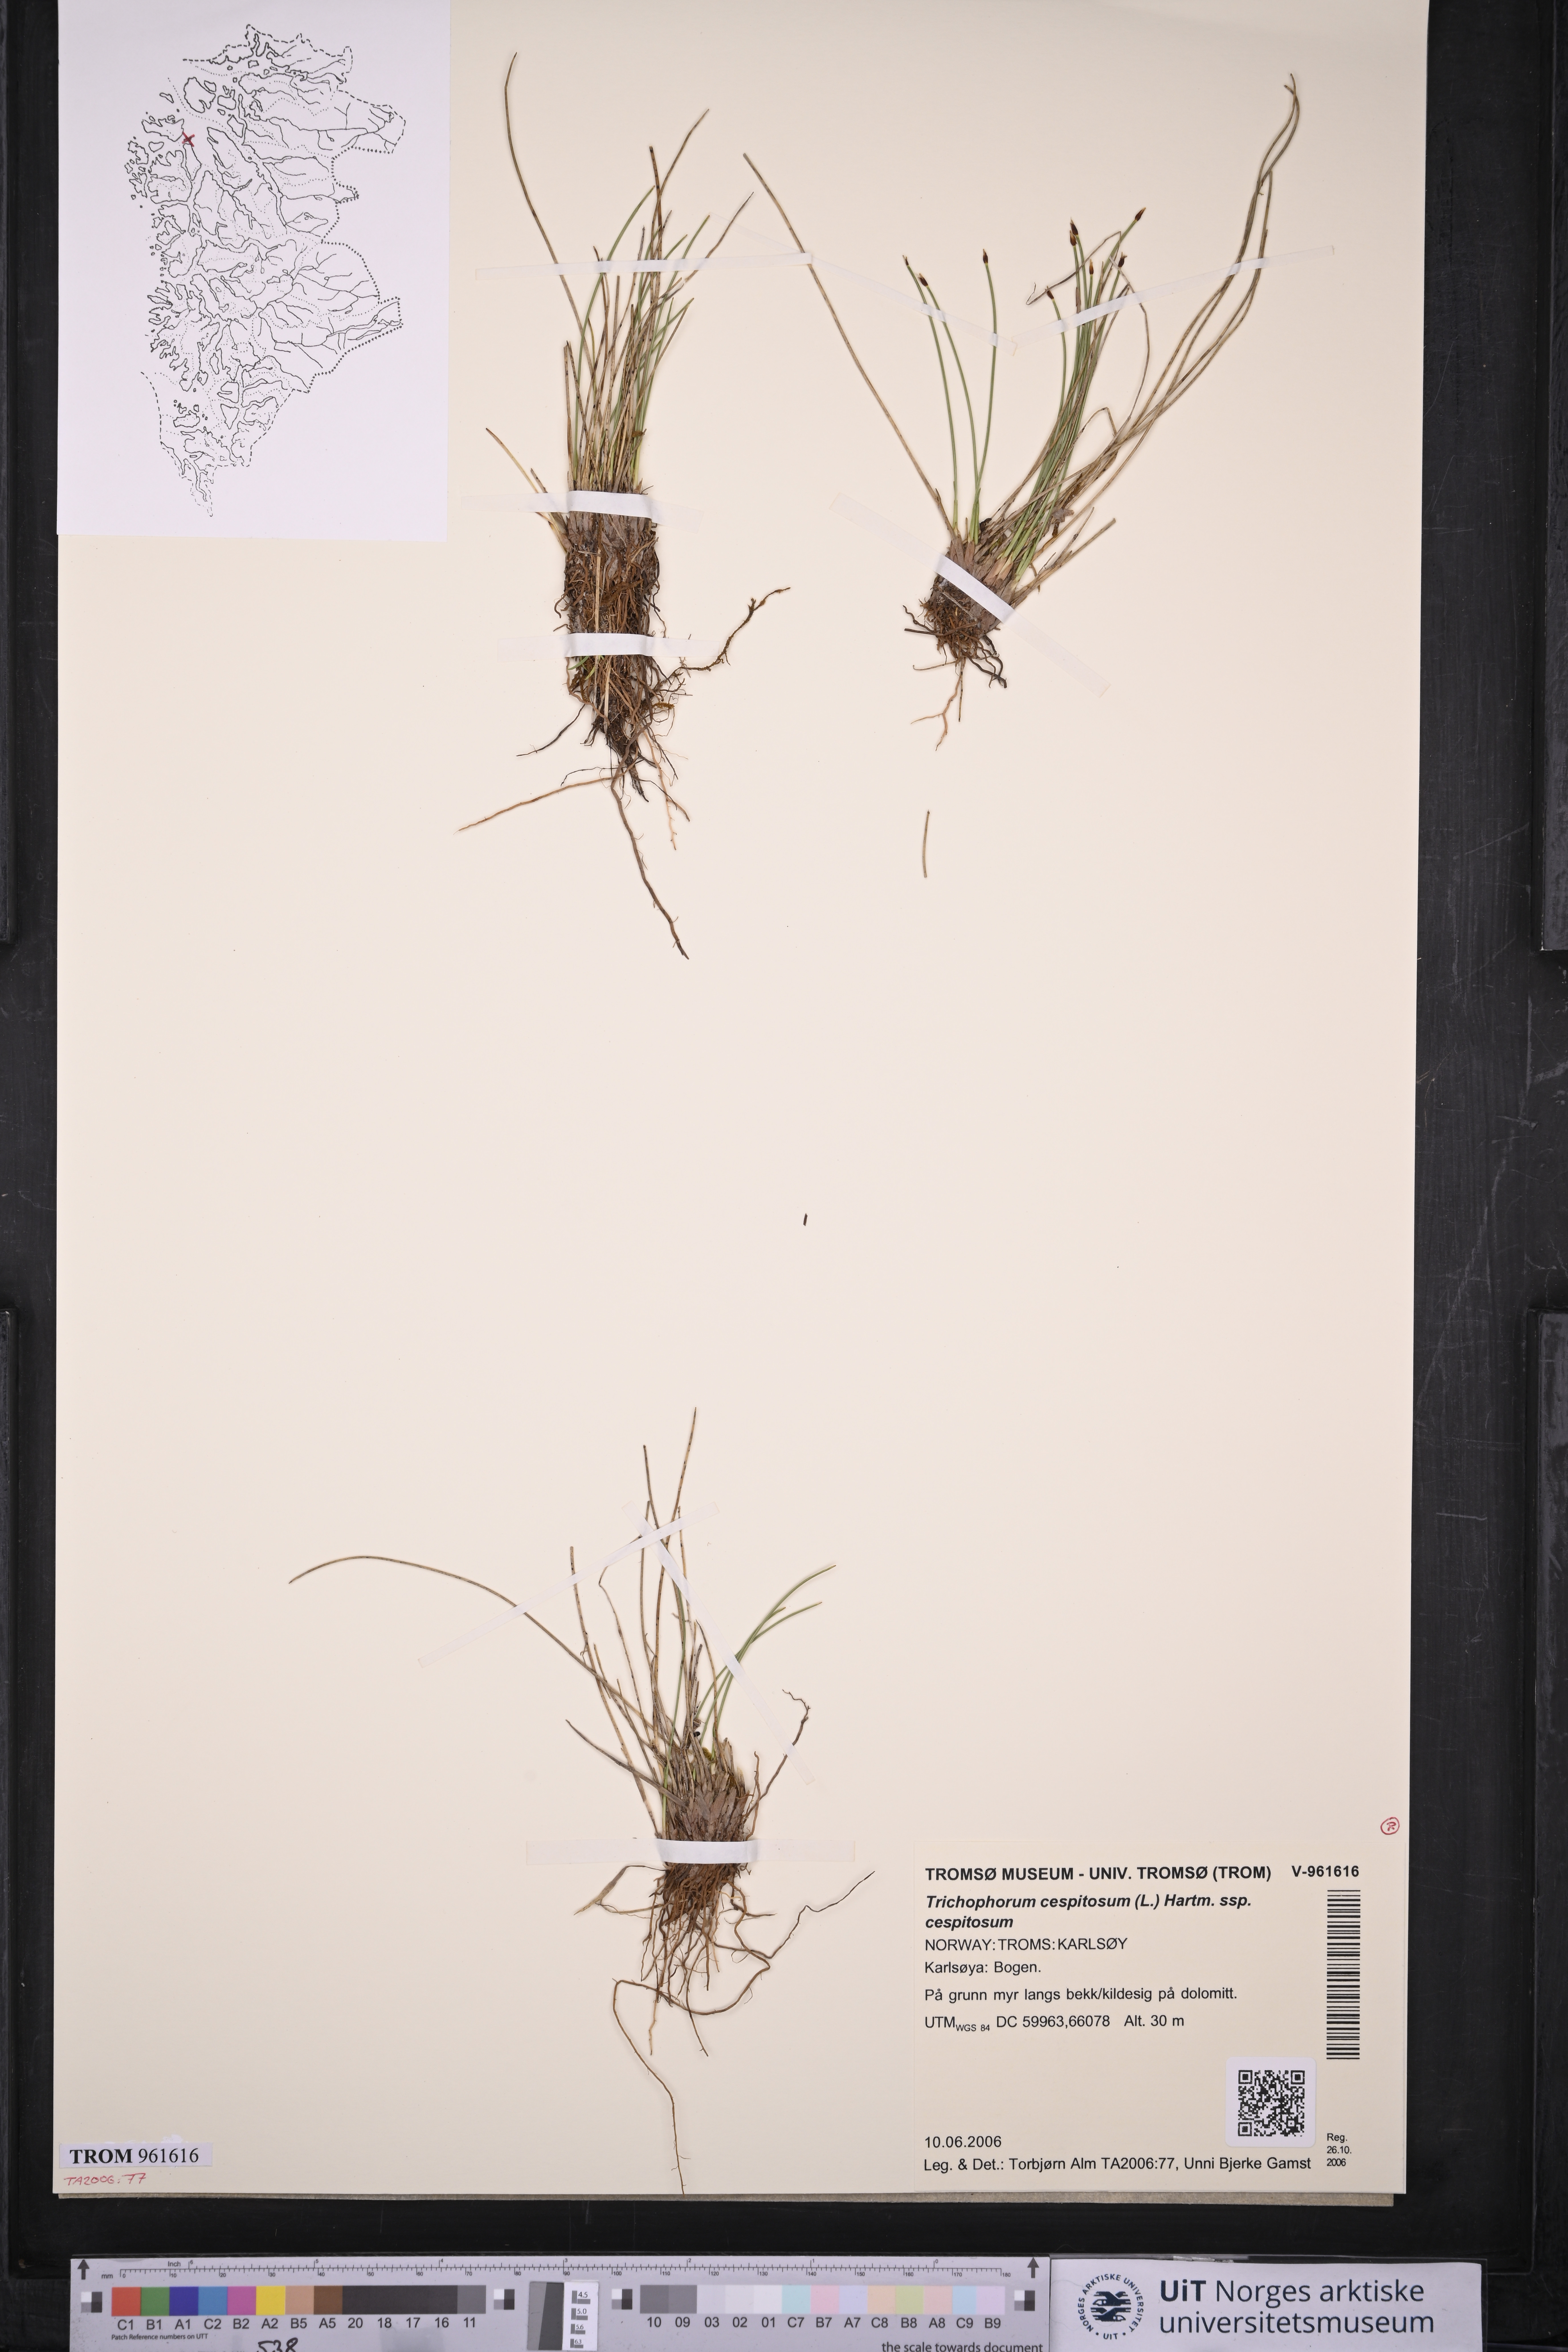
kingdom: Plantae
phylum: Tracheophyta
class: Liliopsida
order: Poales
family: Cyperaceae
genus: Trichophorum
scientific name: Trichophorum cespitosum
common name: Cespitose bulrush
